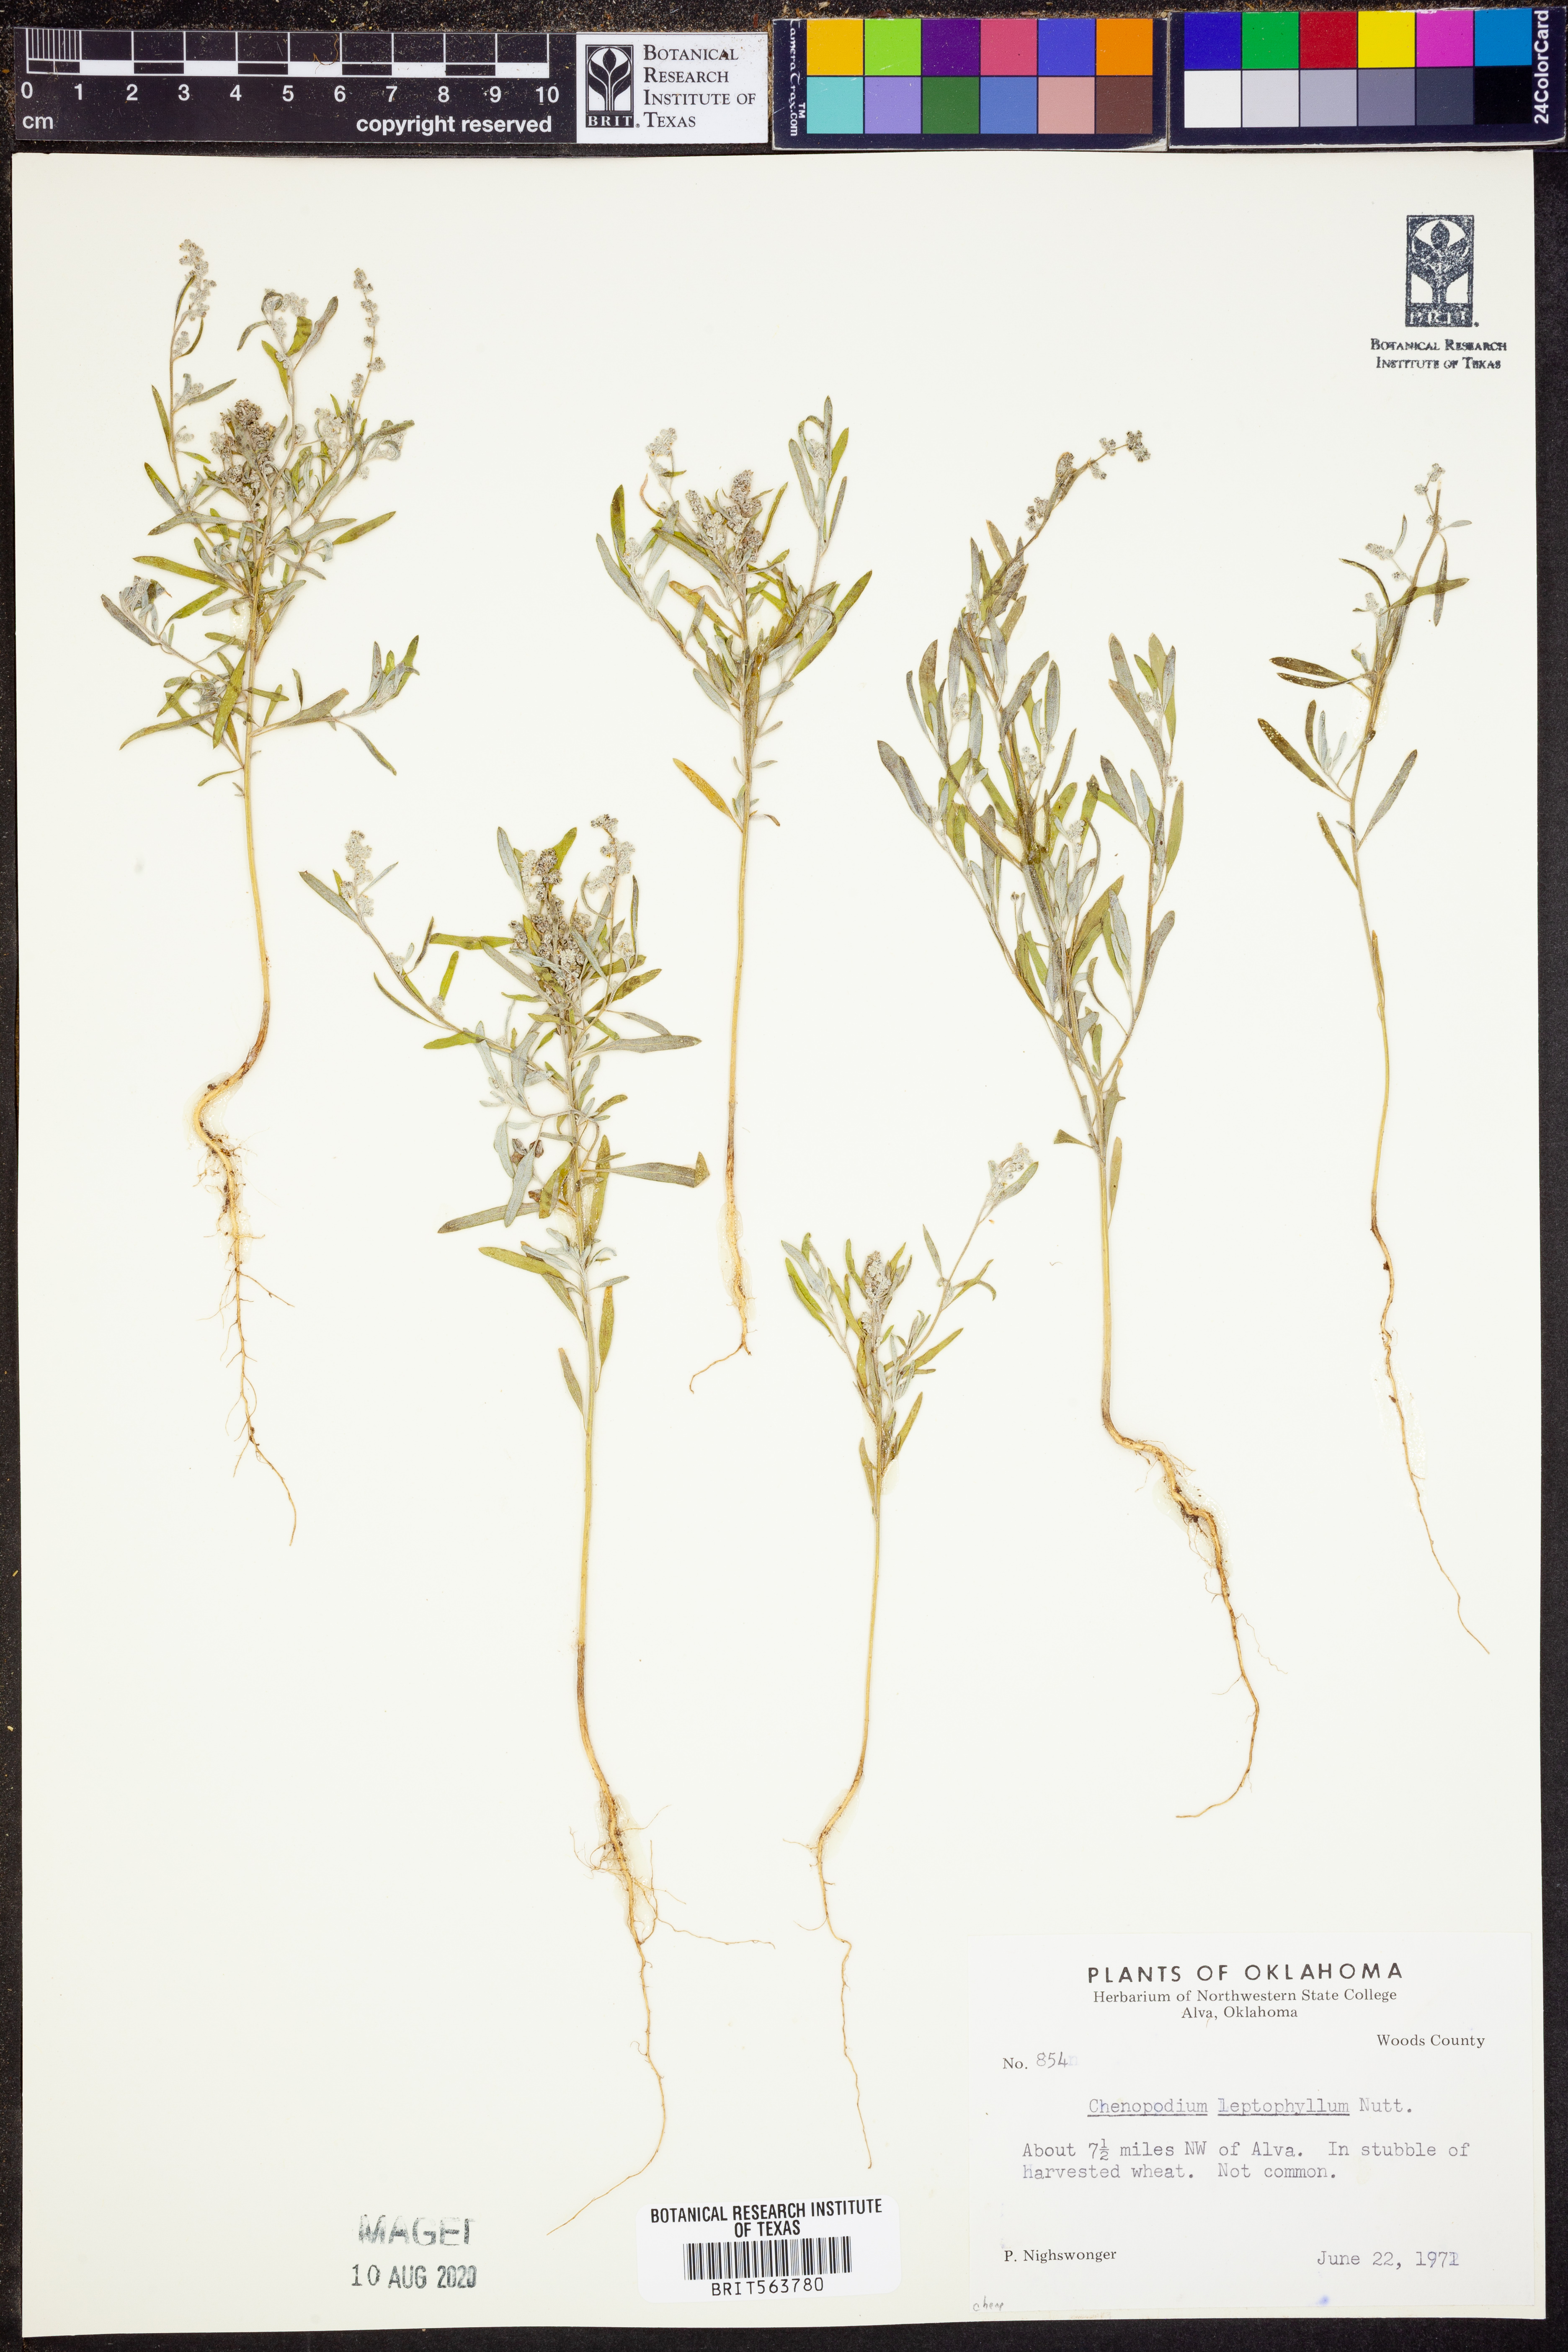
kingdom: Plantae
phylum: Tracheophyta
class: Magnoliopsida
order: Caryophyllales
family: Amaranthaceae
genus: Chenopodium
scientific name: Chenopodium leptophyllum
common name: Narrow-leaf goosefoot
